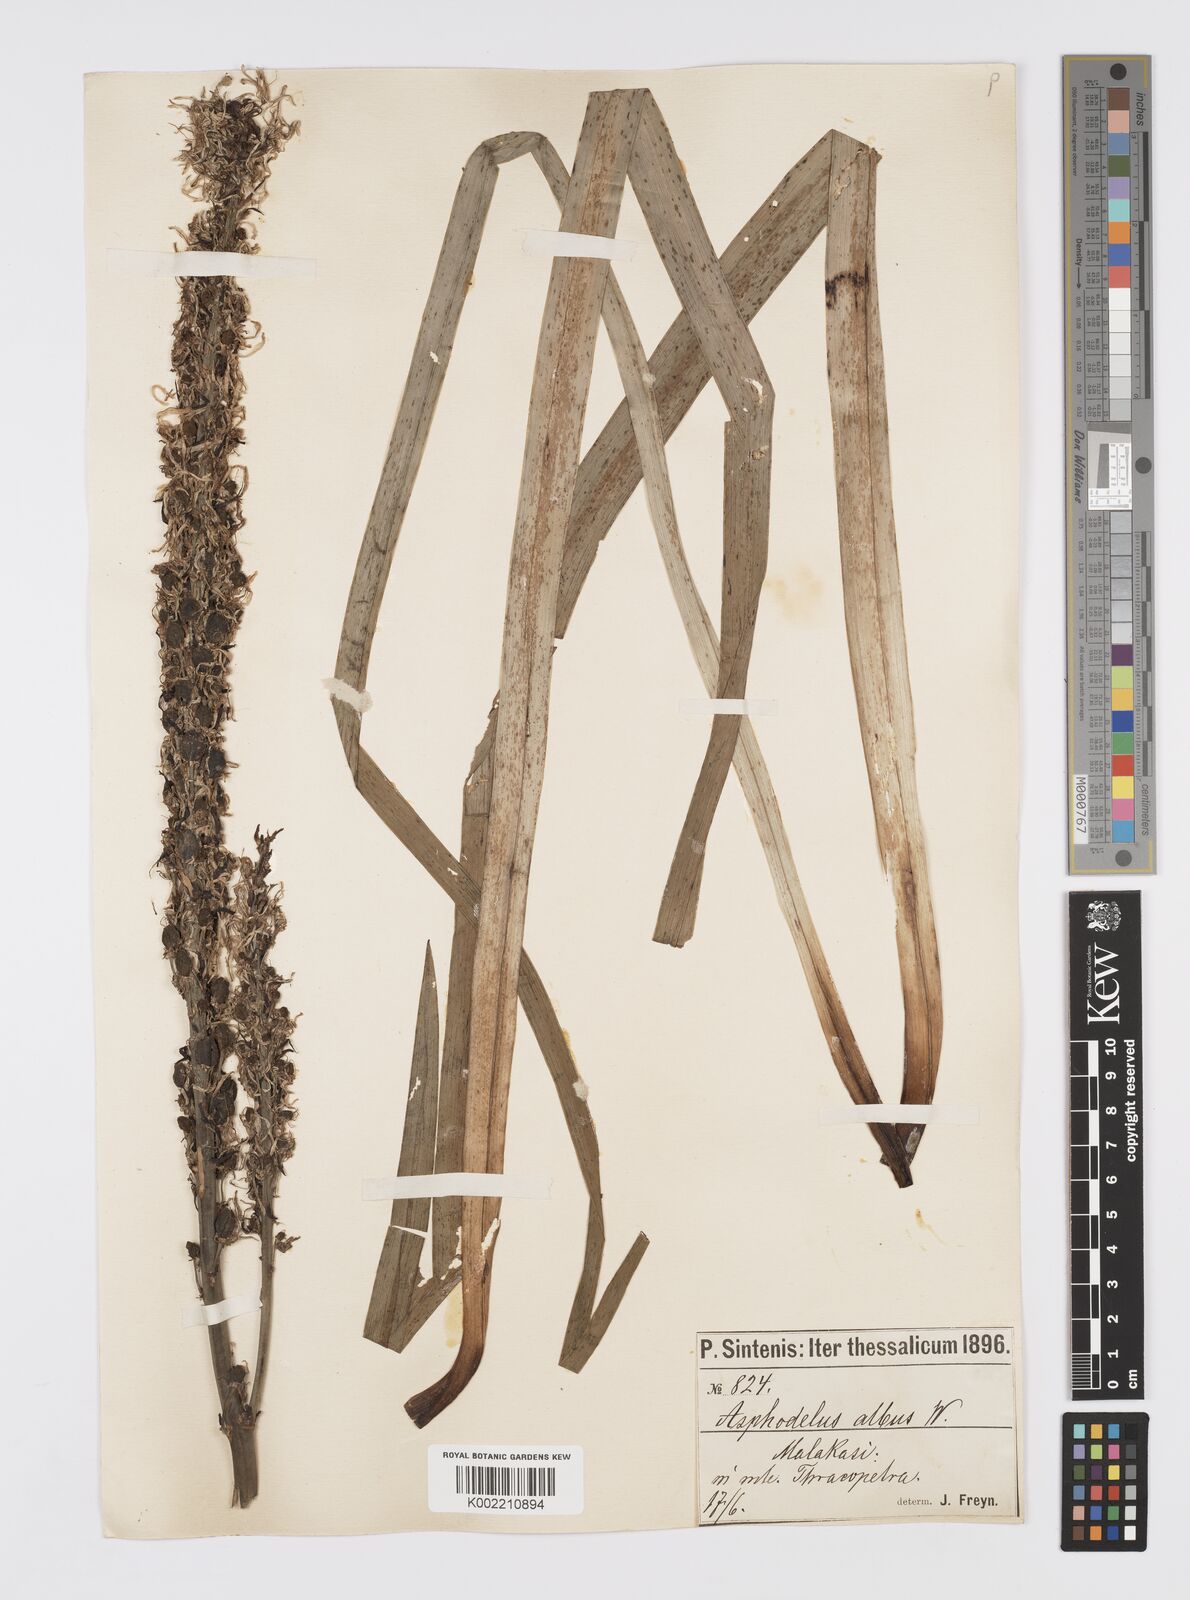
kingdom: Plantae
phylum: Tracheophyta
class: Liliopsida
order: Asparagales
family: Asphodelaceae
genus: Asphodelus
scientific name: Asphodelus albus
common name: White asphodel
